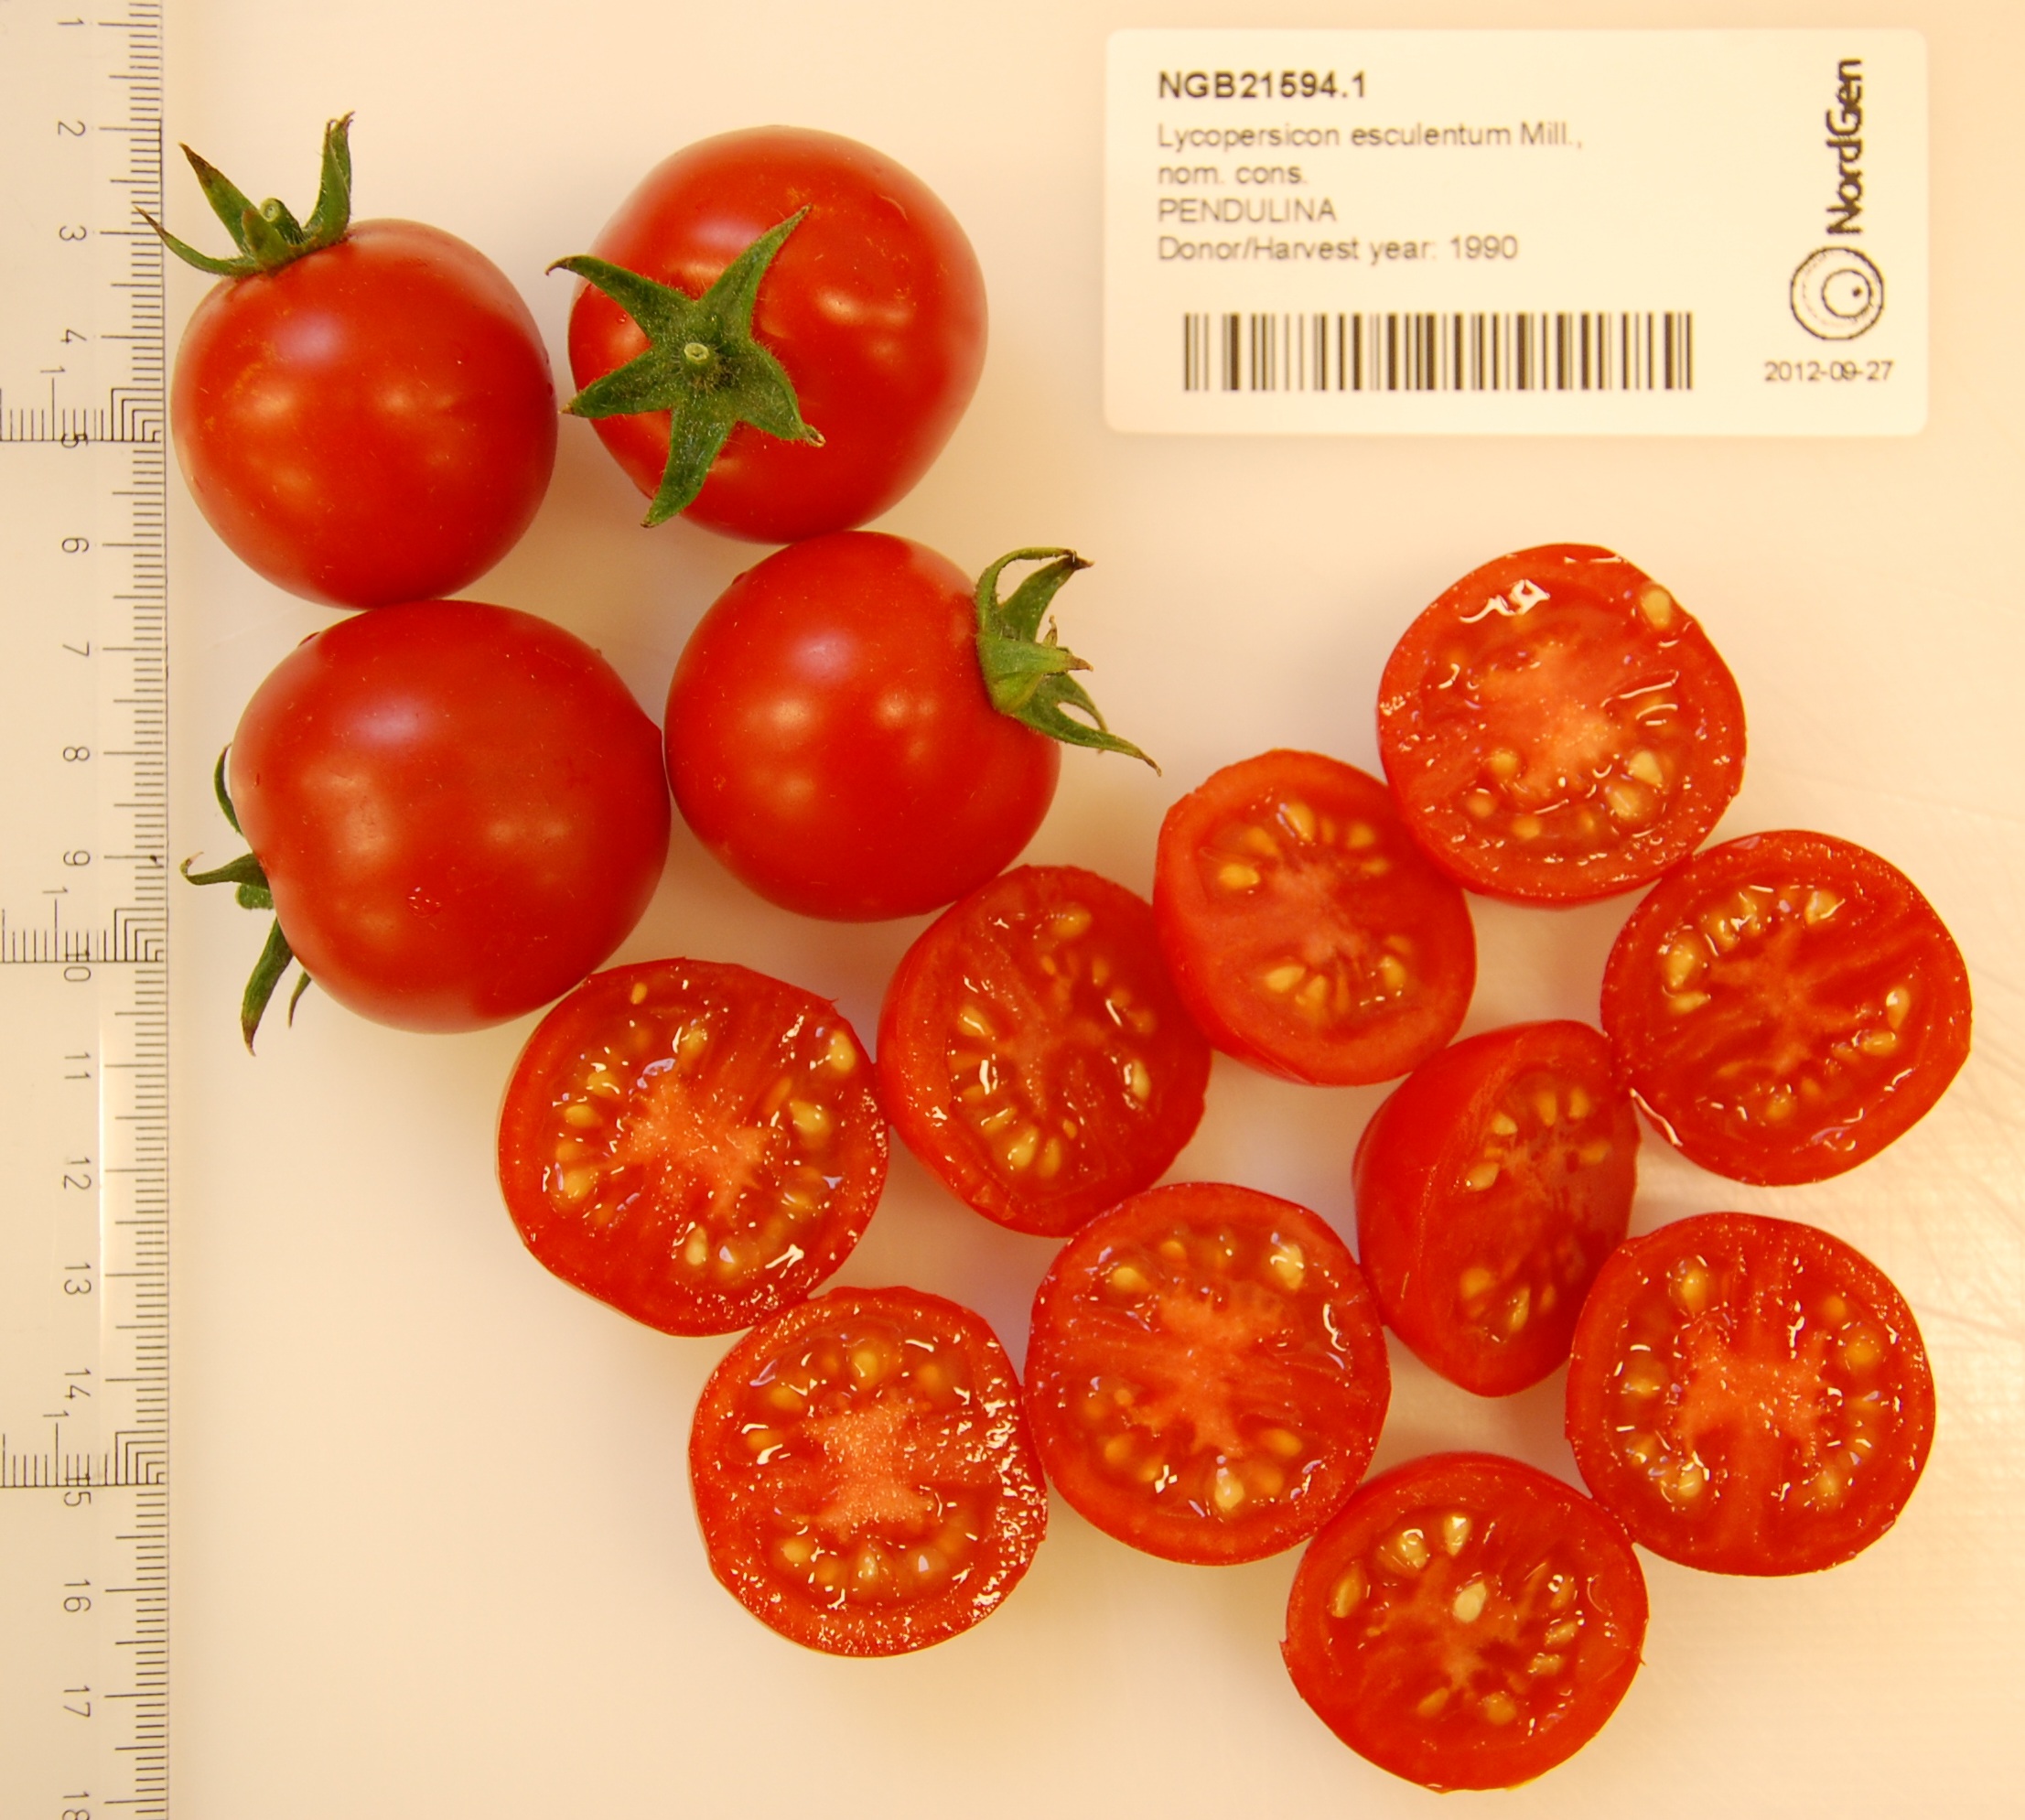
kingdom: Plantae
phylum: Tracheophyta
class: Magnoliopsida
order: Solanales
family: Solanaceae
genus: Solanum
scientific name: Solanum lycopersicum
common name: Garden tomato
